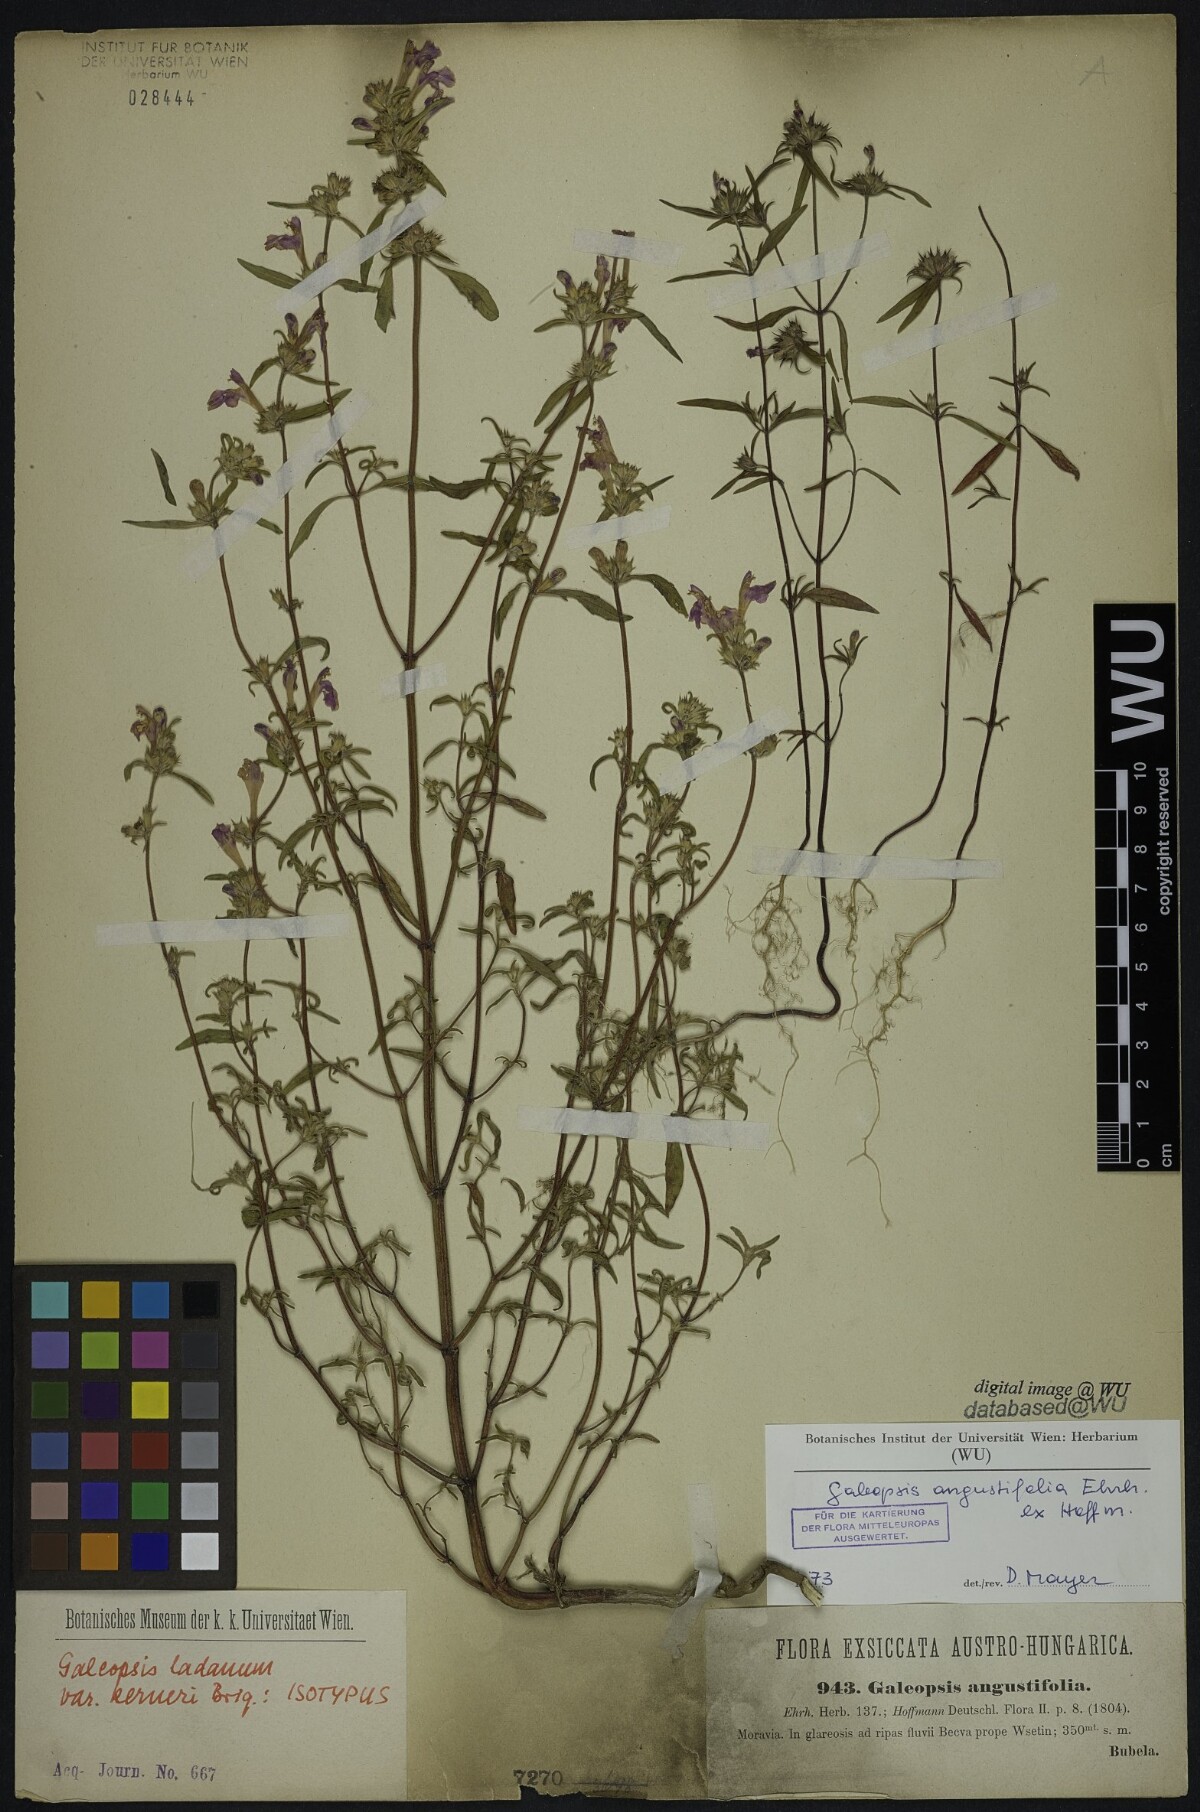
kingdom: Plantae
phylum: Tracheophyta
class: Magnoliopsida
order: Lamiales
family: Lamiaceae
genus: Galeopsis
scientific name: Galeopsis angustifolia
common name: Red hemp-nettle
